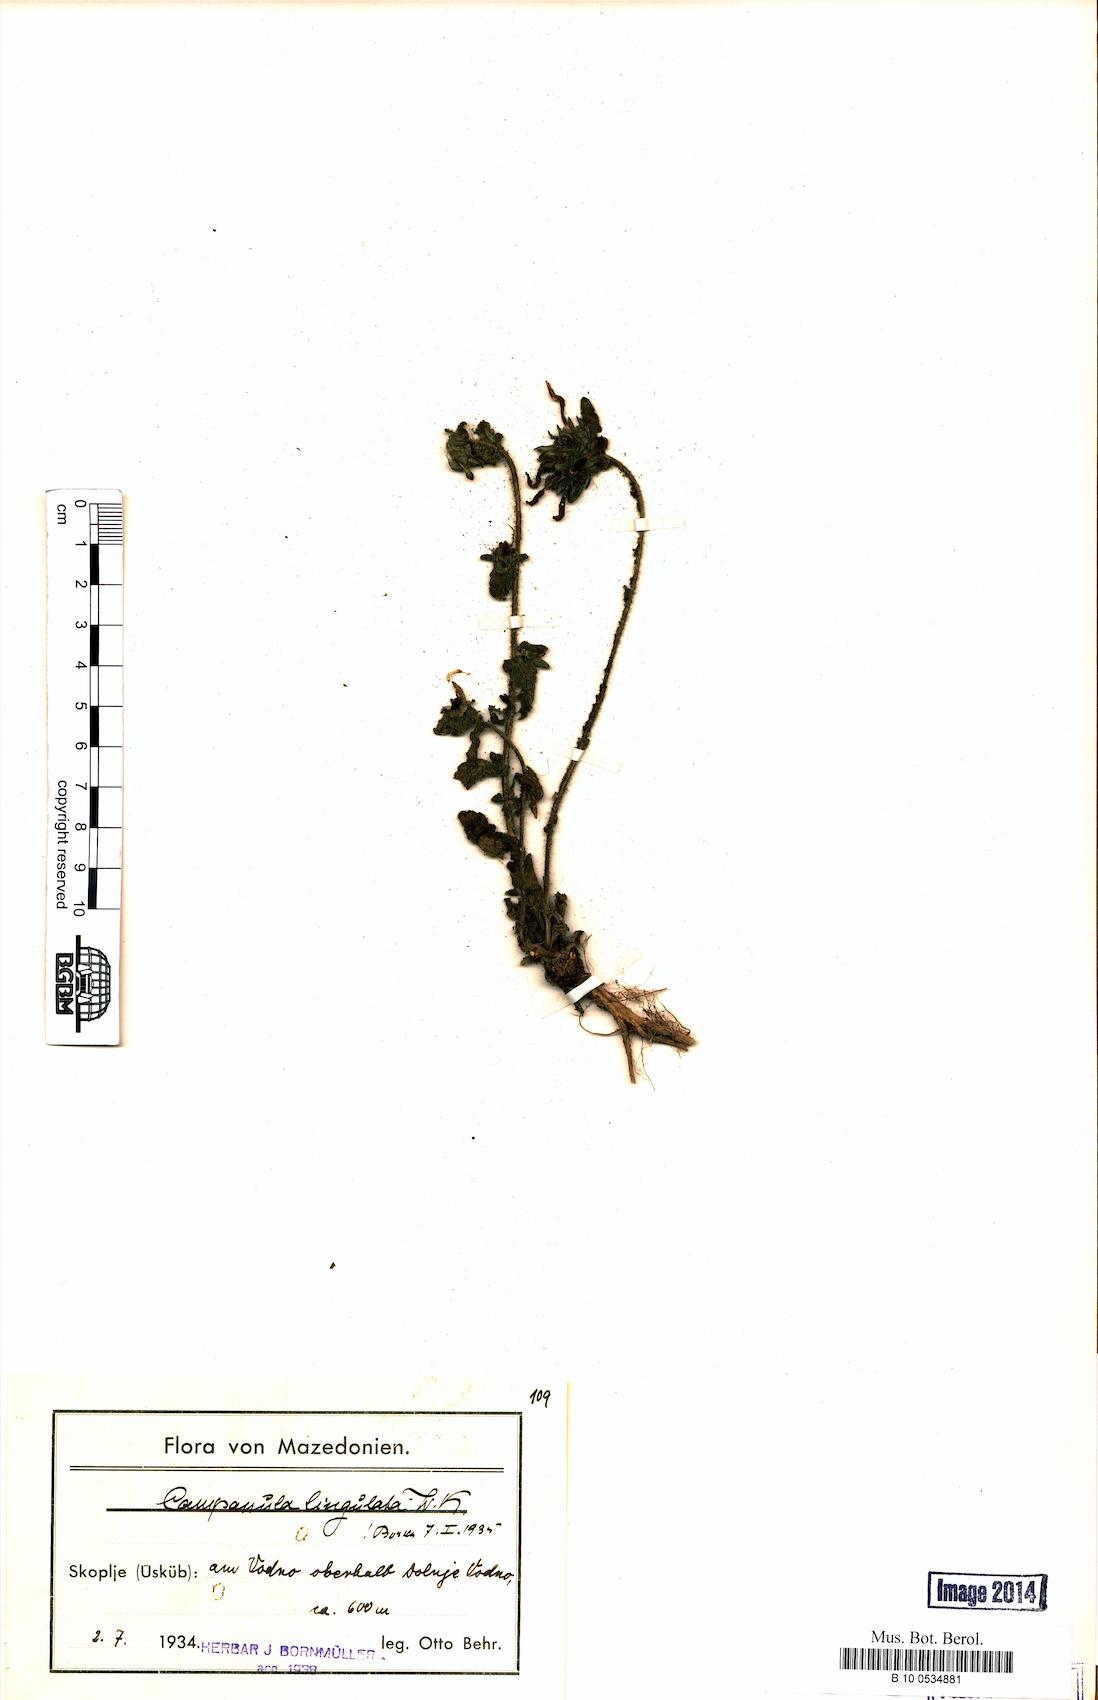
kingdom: Plantae
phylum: Tracheophyta
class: Magnoliopsida
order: Asterales
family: Campanulaceae
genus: Campanula
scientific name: Campanula lingulata
